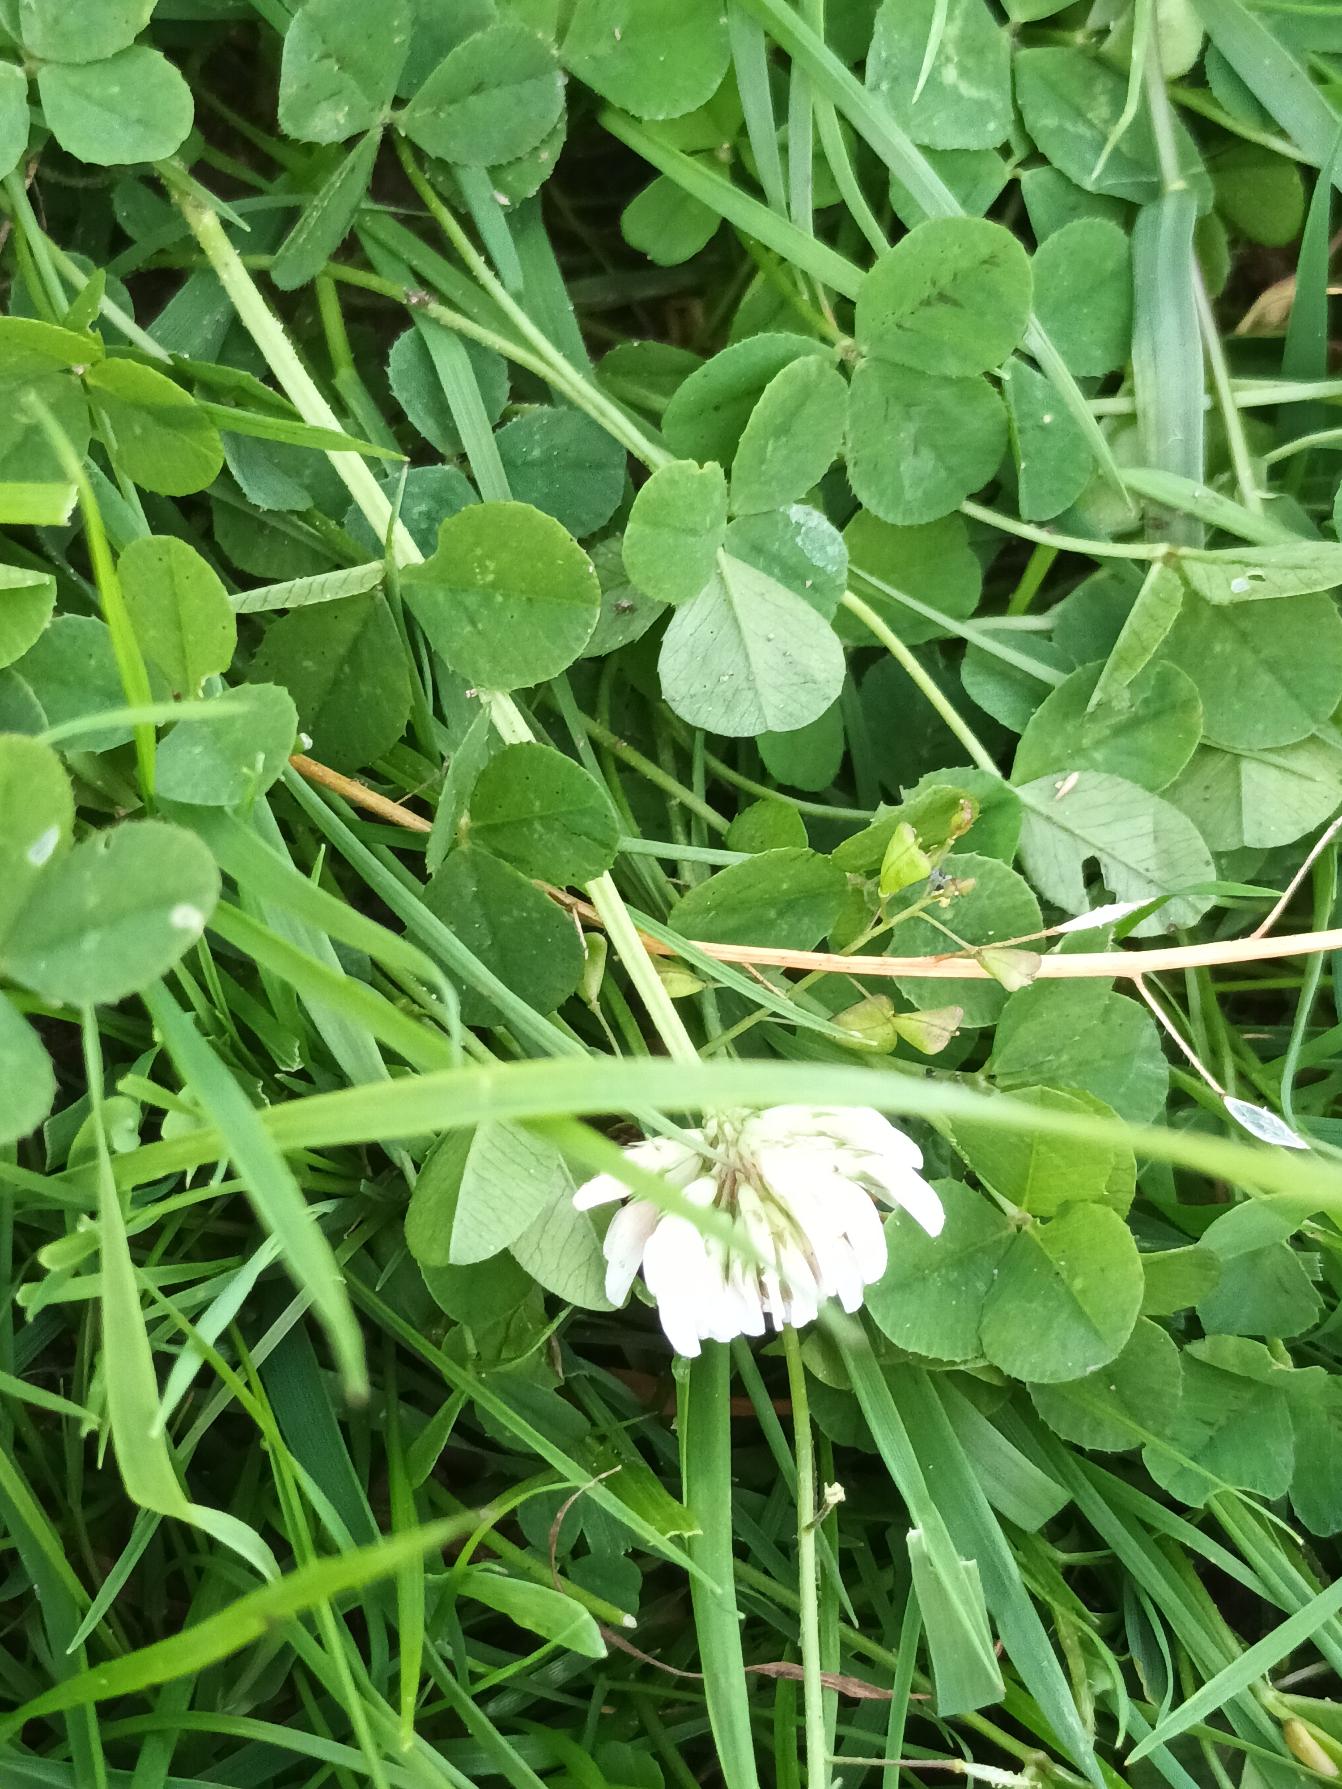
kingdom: Plantae
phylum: Tracheophyta
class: Magnoliopsida
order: Fabales
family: Fabaceae
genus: Trifolium
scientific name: Trifolium repens
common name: Hvid-kløver
